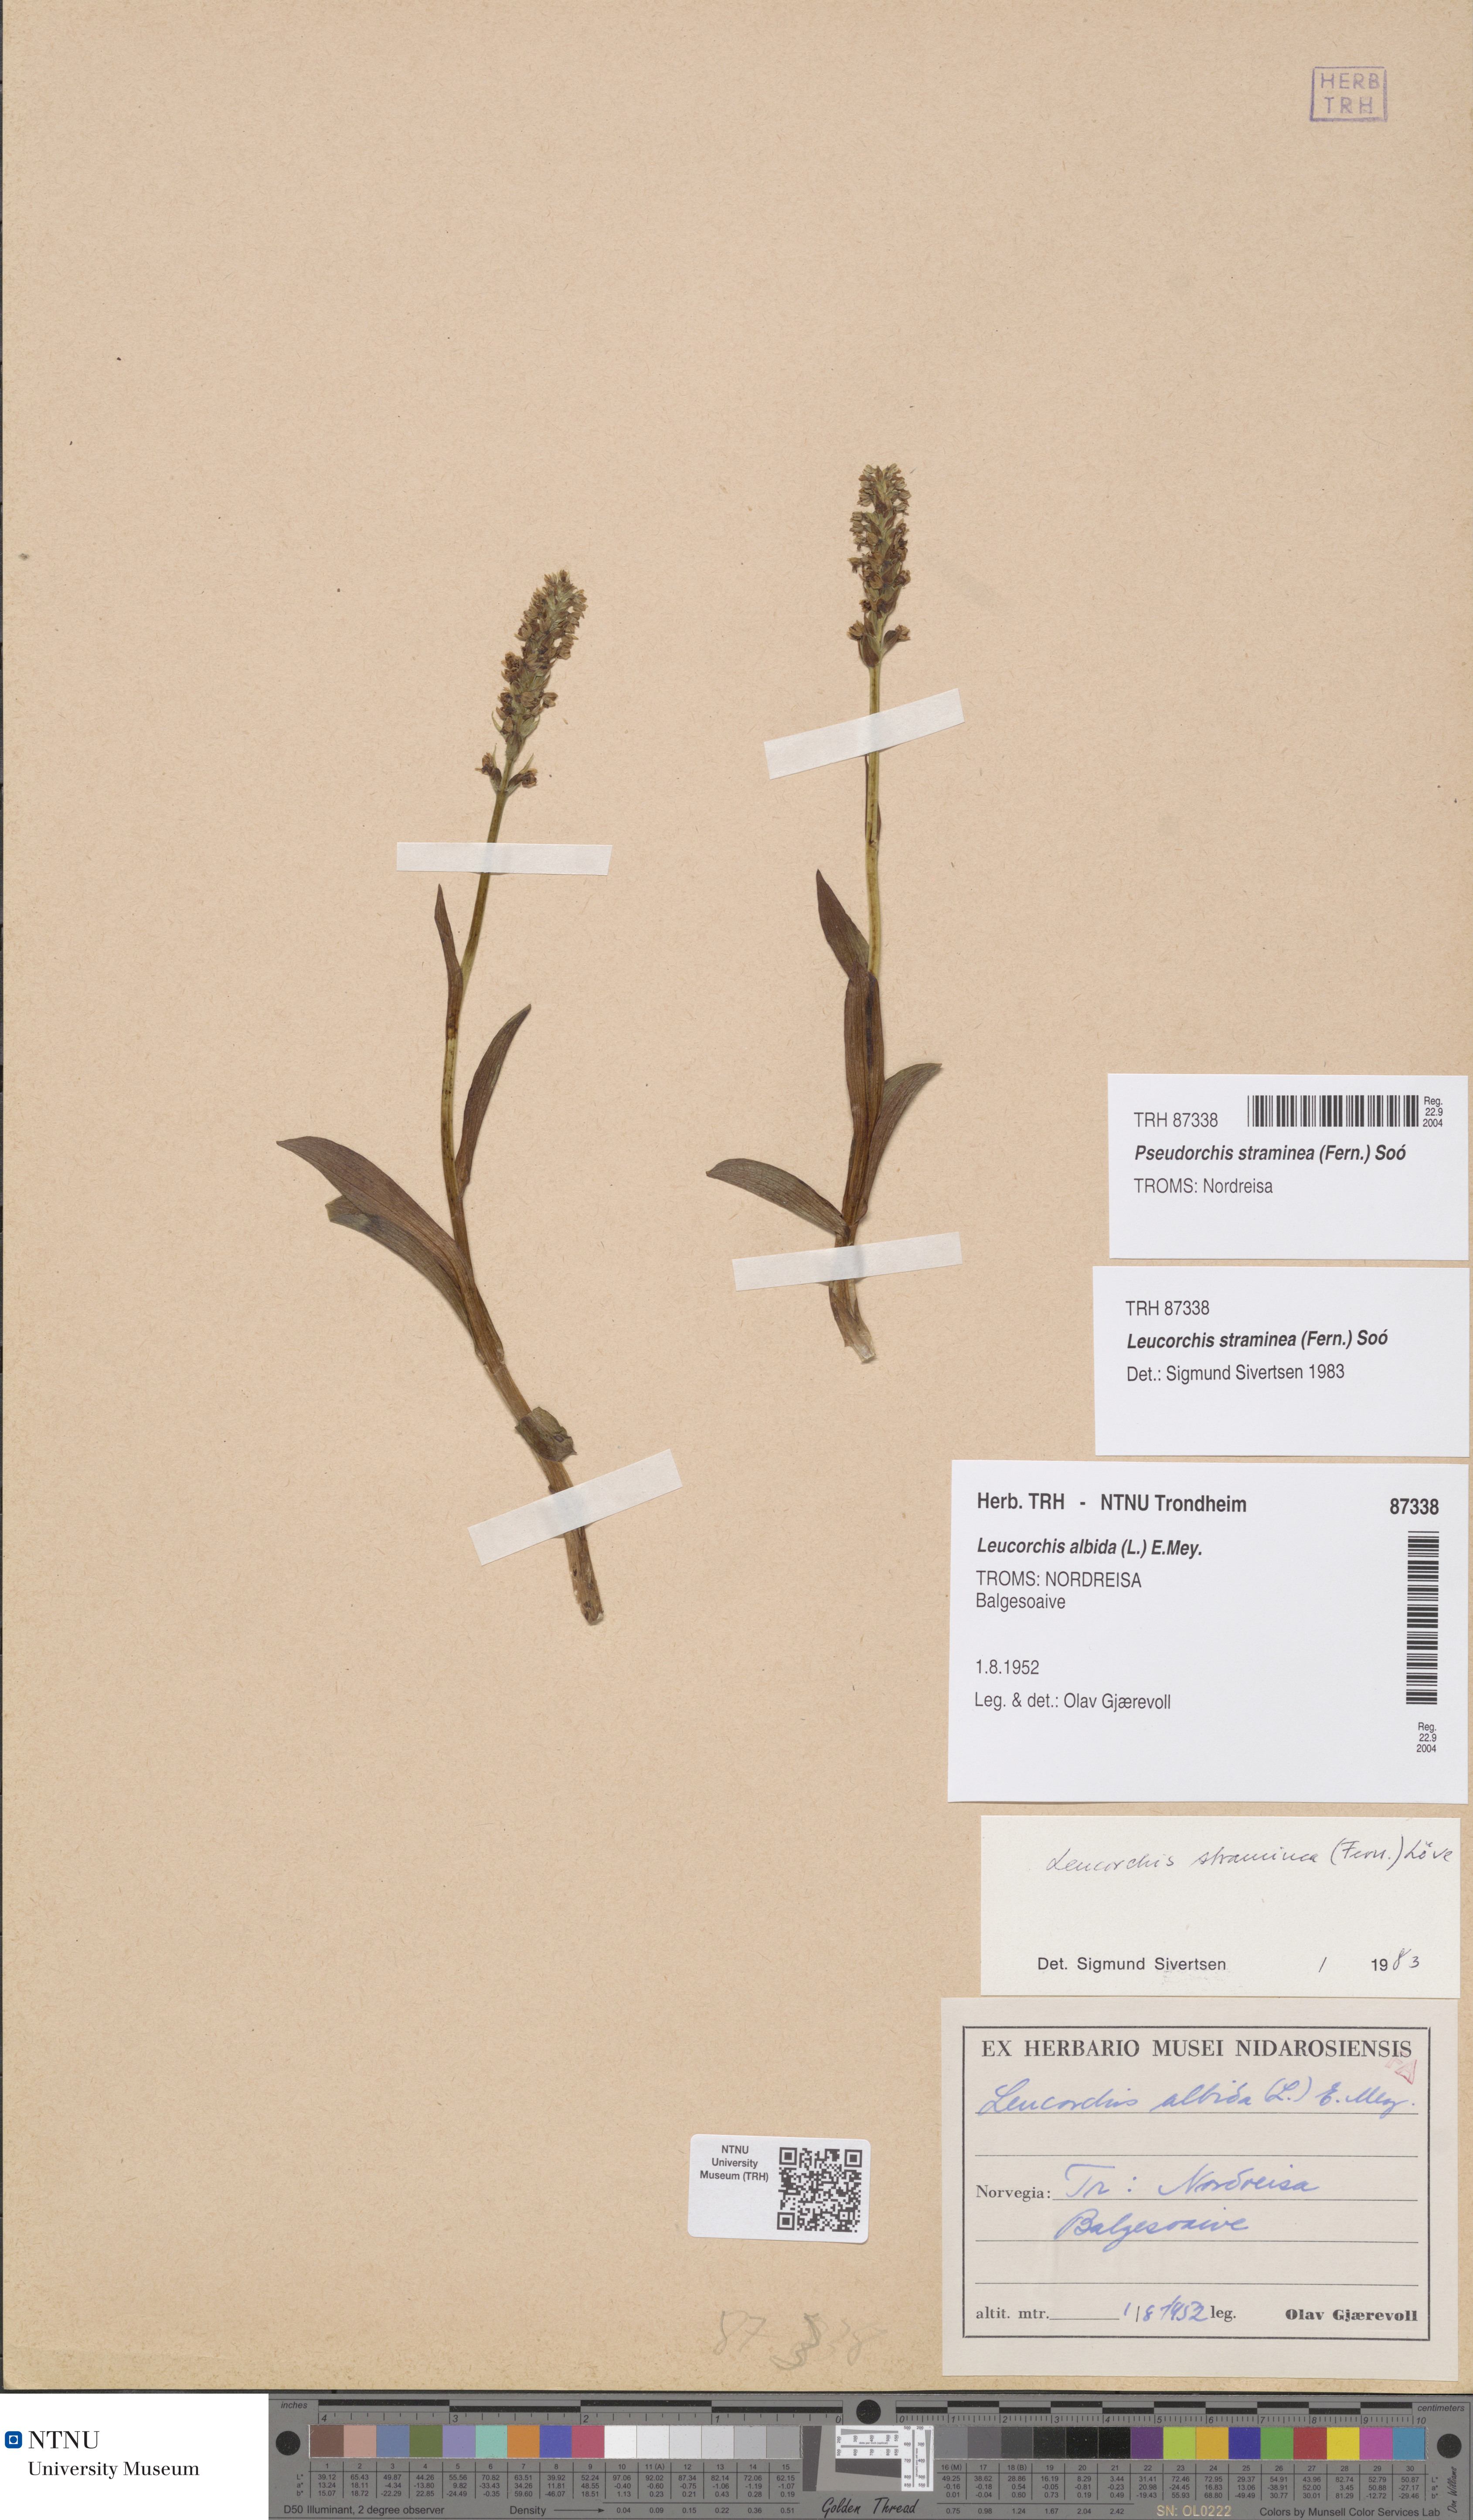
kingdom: Plantae
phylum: Tracheophyta
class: Liliopsida
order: Asparagales
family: Orchidaceae
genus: Pseudorchis
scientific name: Pseudorchis straminea
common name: Vanilla-scented bog orchid
